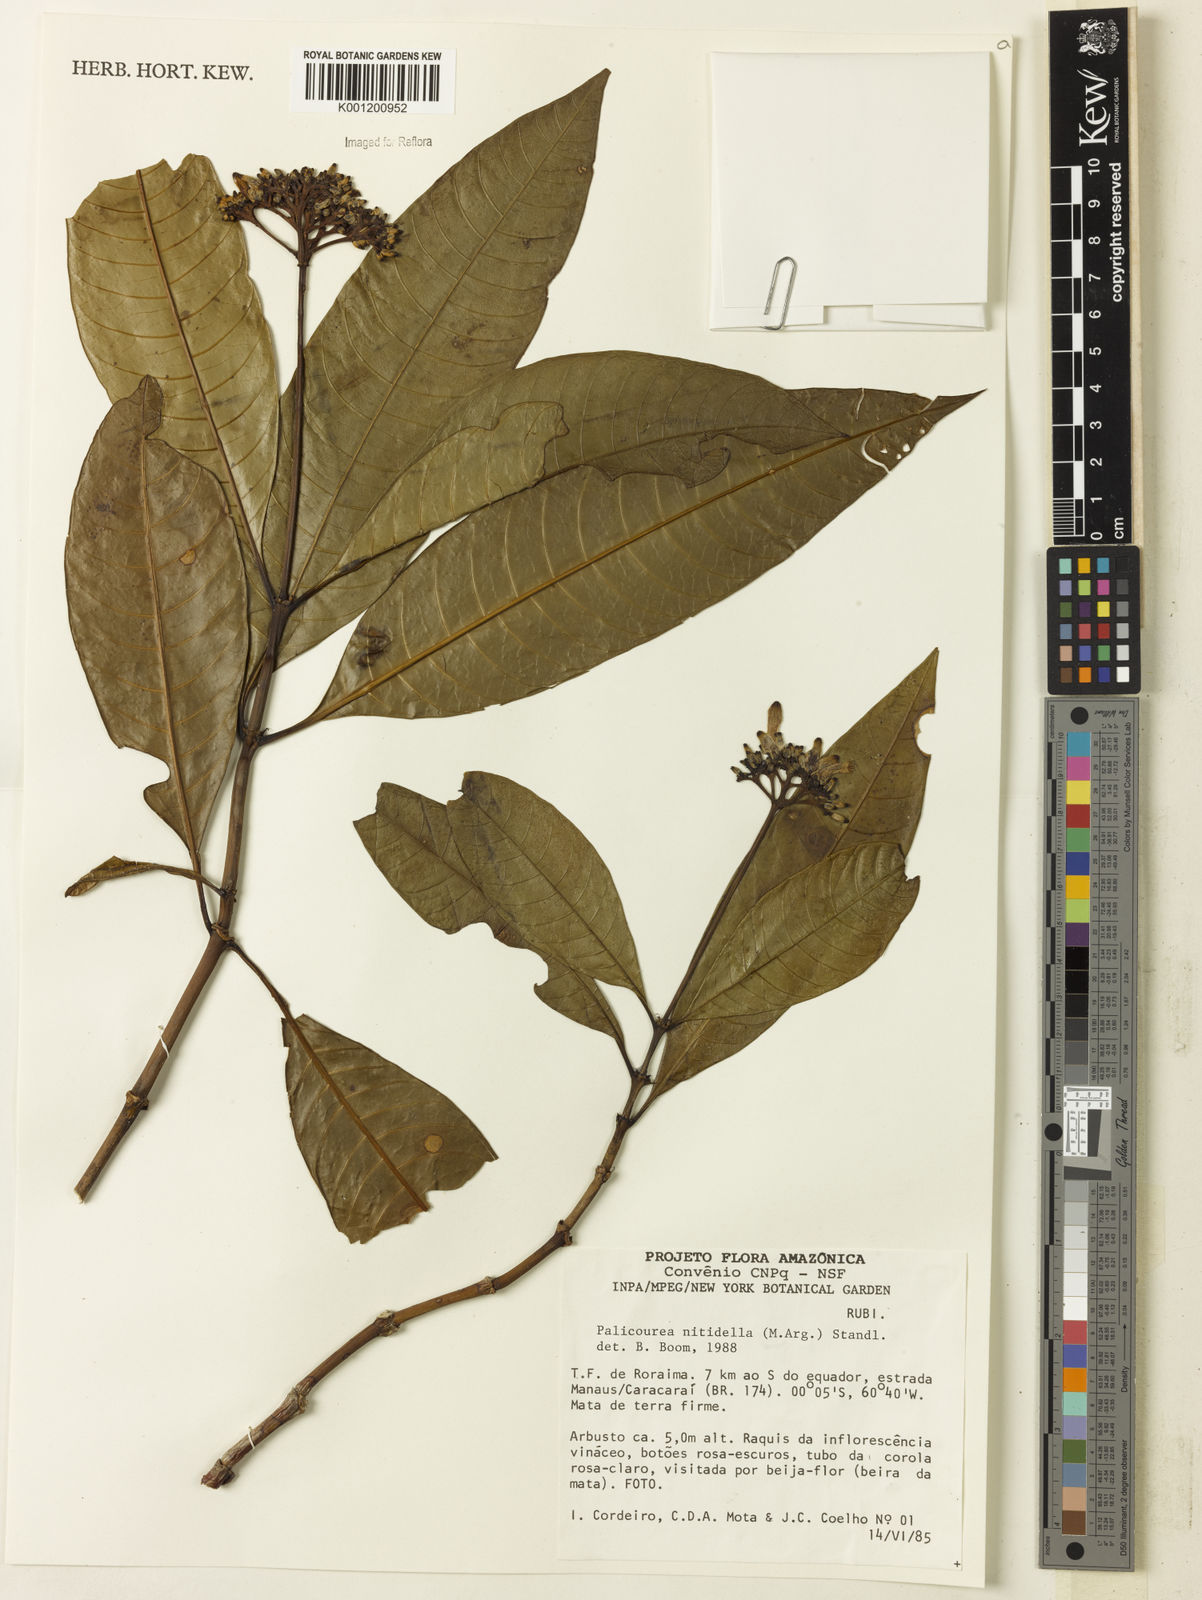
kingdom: Plantae
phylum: Tracheophyta
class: Magnoliopsida
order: Gentianales
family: Rubiaceae
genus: Palicourea
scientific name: Palicourea
